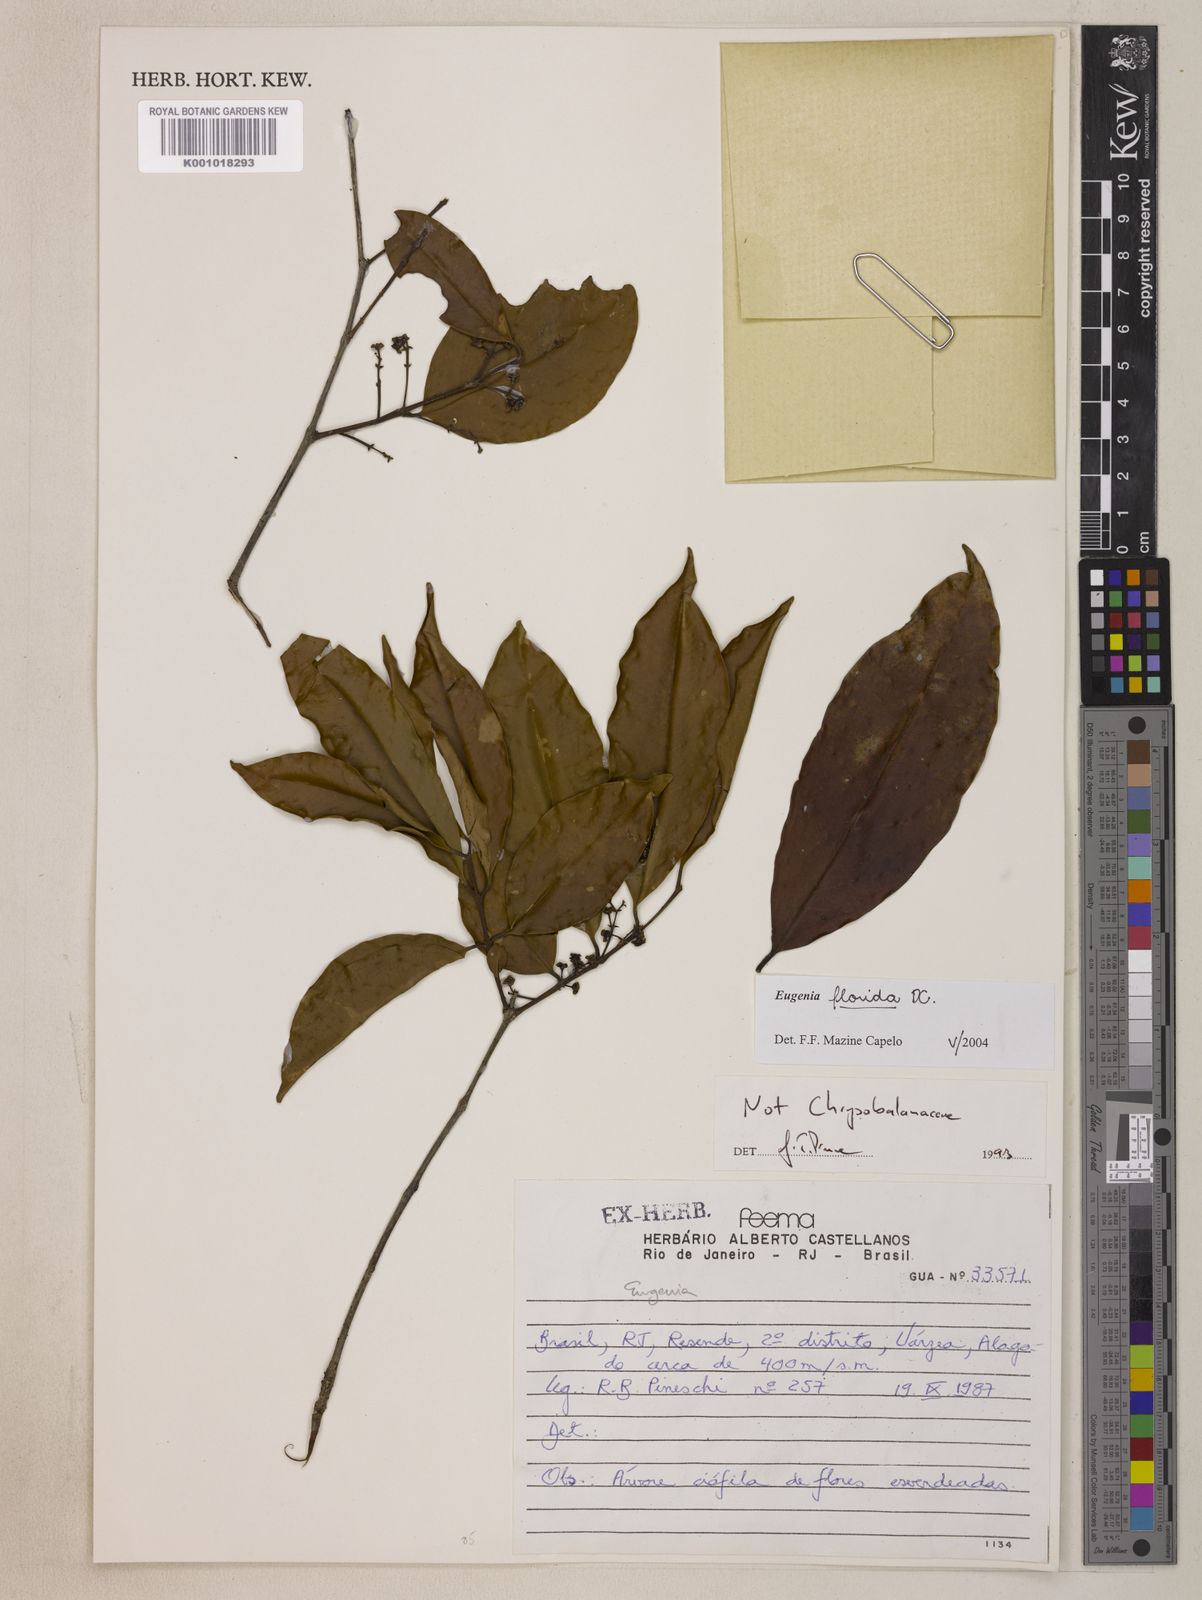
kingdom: Plantae
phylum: Tracheophyta
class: Magnoliopsida
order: Myrtales
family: Myrtaceae
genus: Eugenia
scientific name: Eugenia florida
